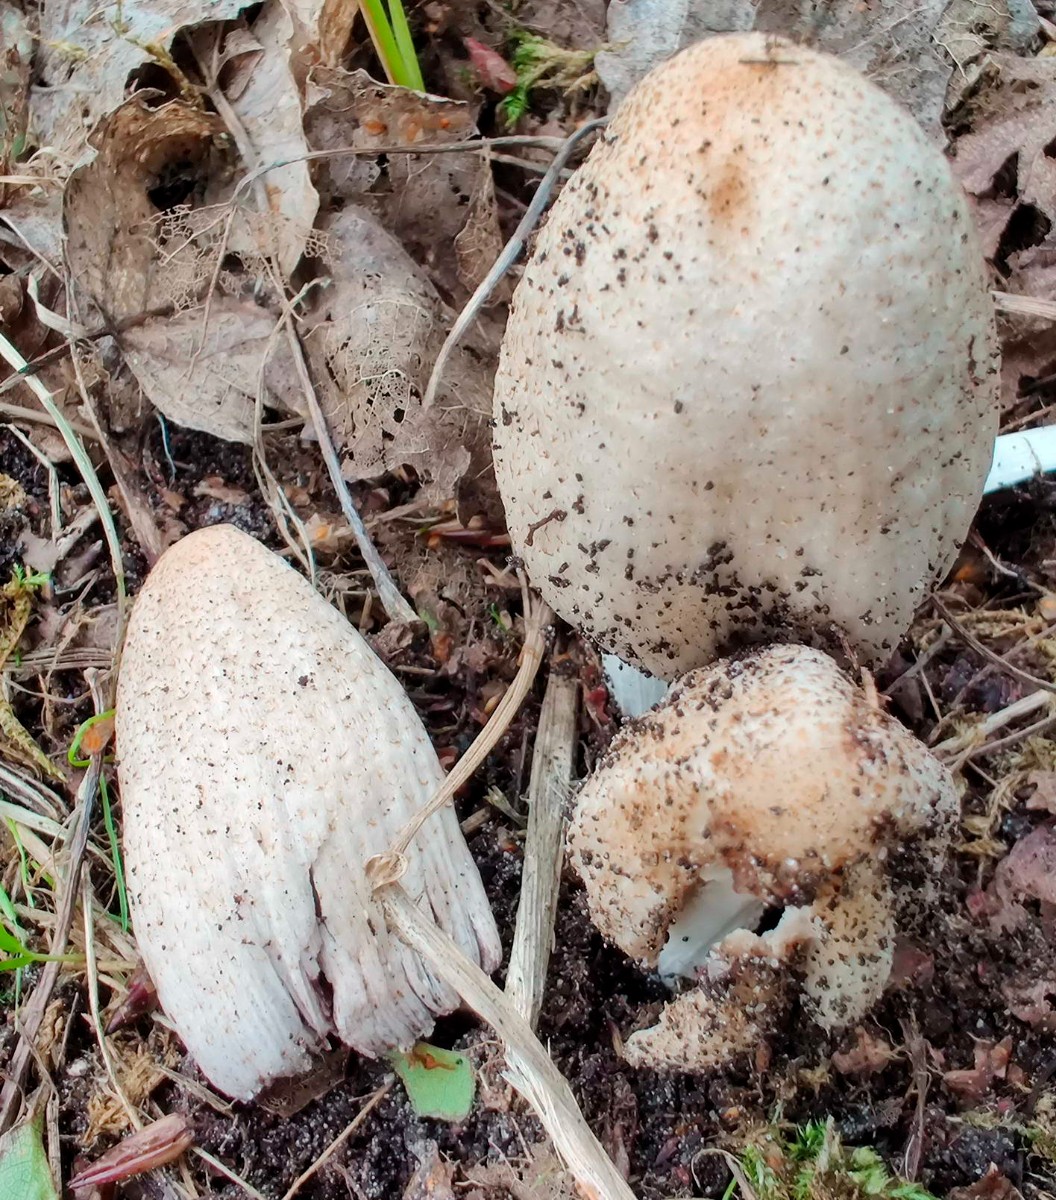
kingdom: Fungi
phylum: Basidiomycota
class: Agaricomycetes
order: Agaricales
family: Psathyrellaceae
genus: Coprinopsis
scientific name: Coprinopsis romagnesiana
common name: brunskællet blækhat
